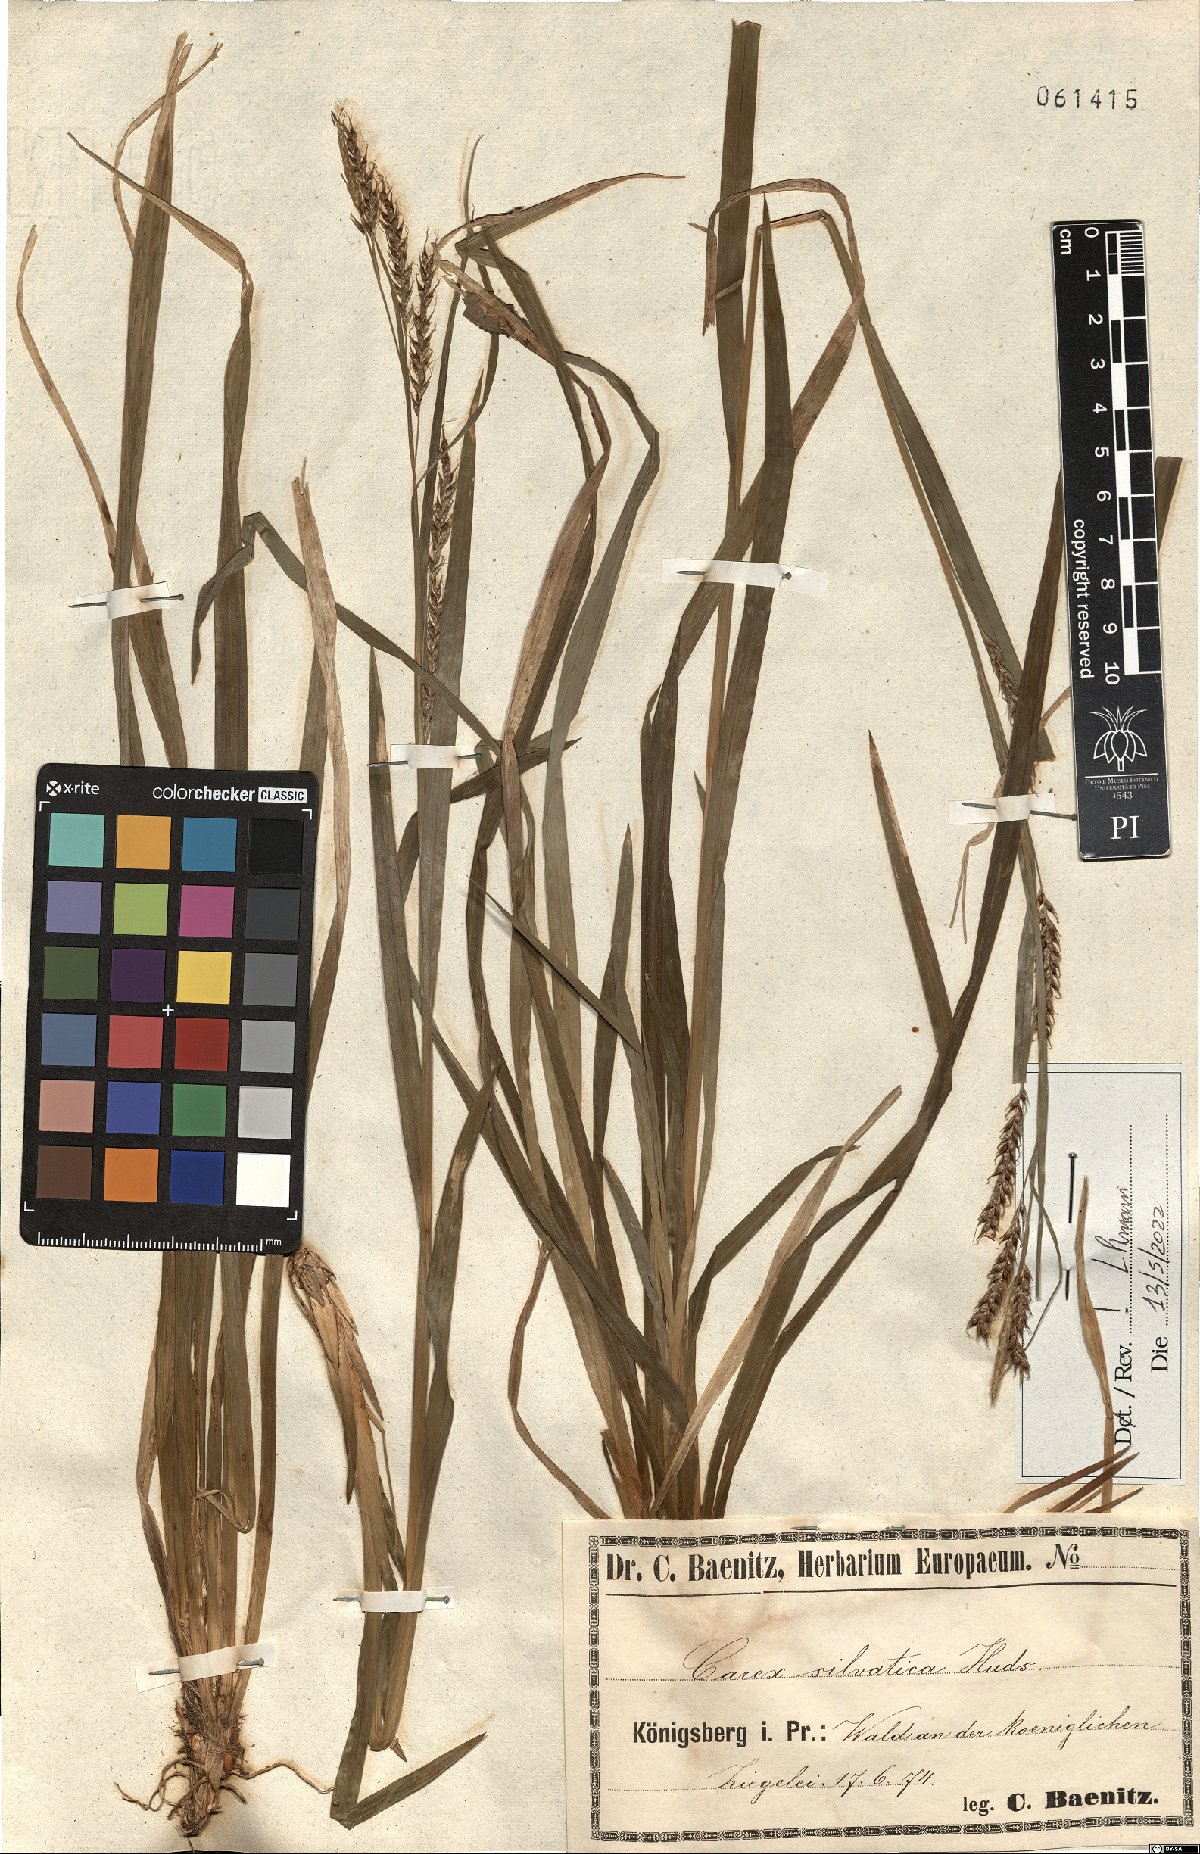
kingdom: Plantae
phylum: Tracheophyta
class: Liliopsida
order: Poales
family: Cyperaceae
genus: Carex
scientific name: Carex sylvatica
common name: Wood-sedge
